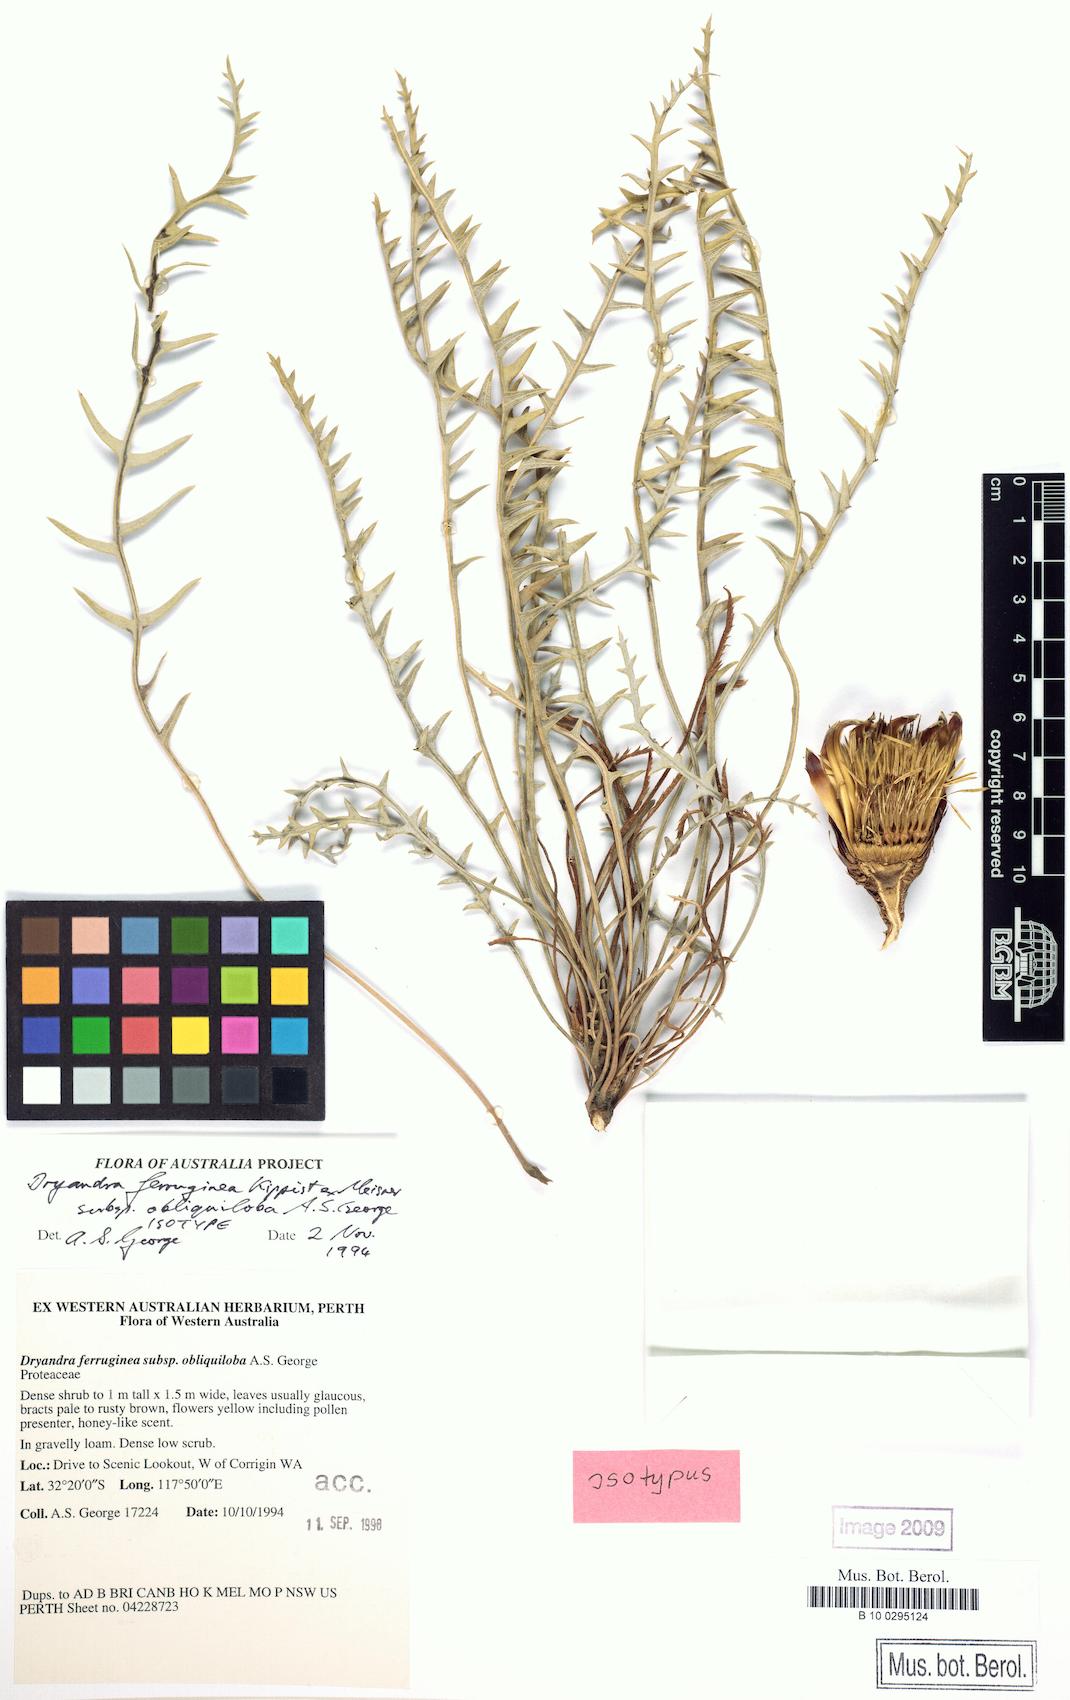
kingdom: Plantae
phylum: Tracheophyta
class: Magnoliopsida
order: Proteales
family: Proteaceae
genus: Banksia
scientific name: Banksia rufa
